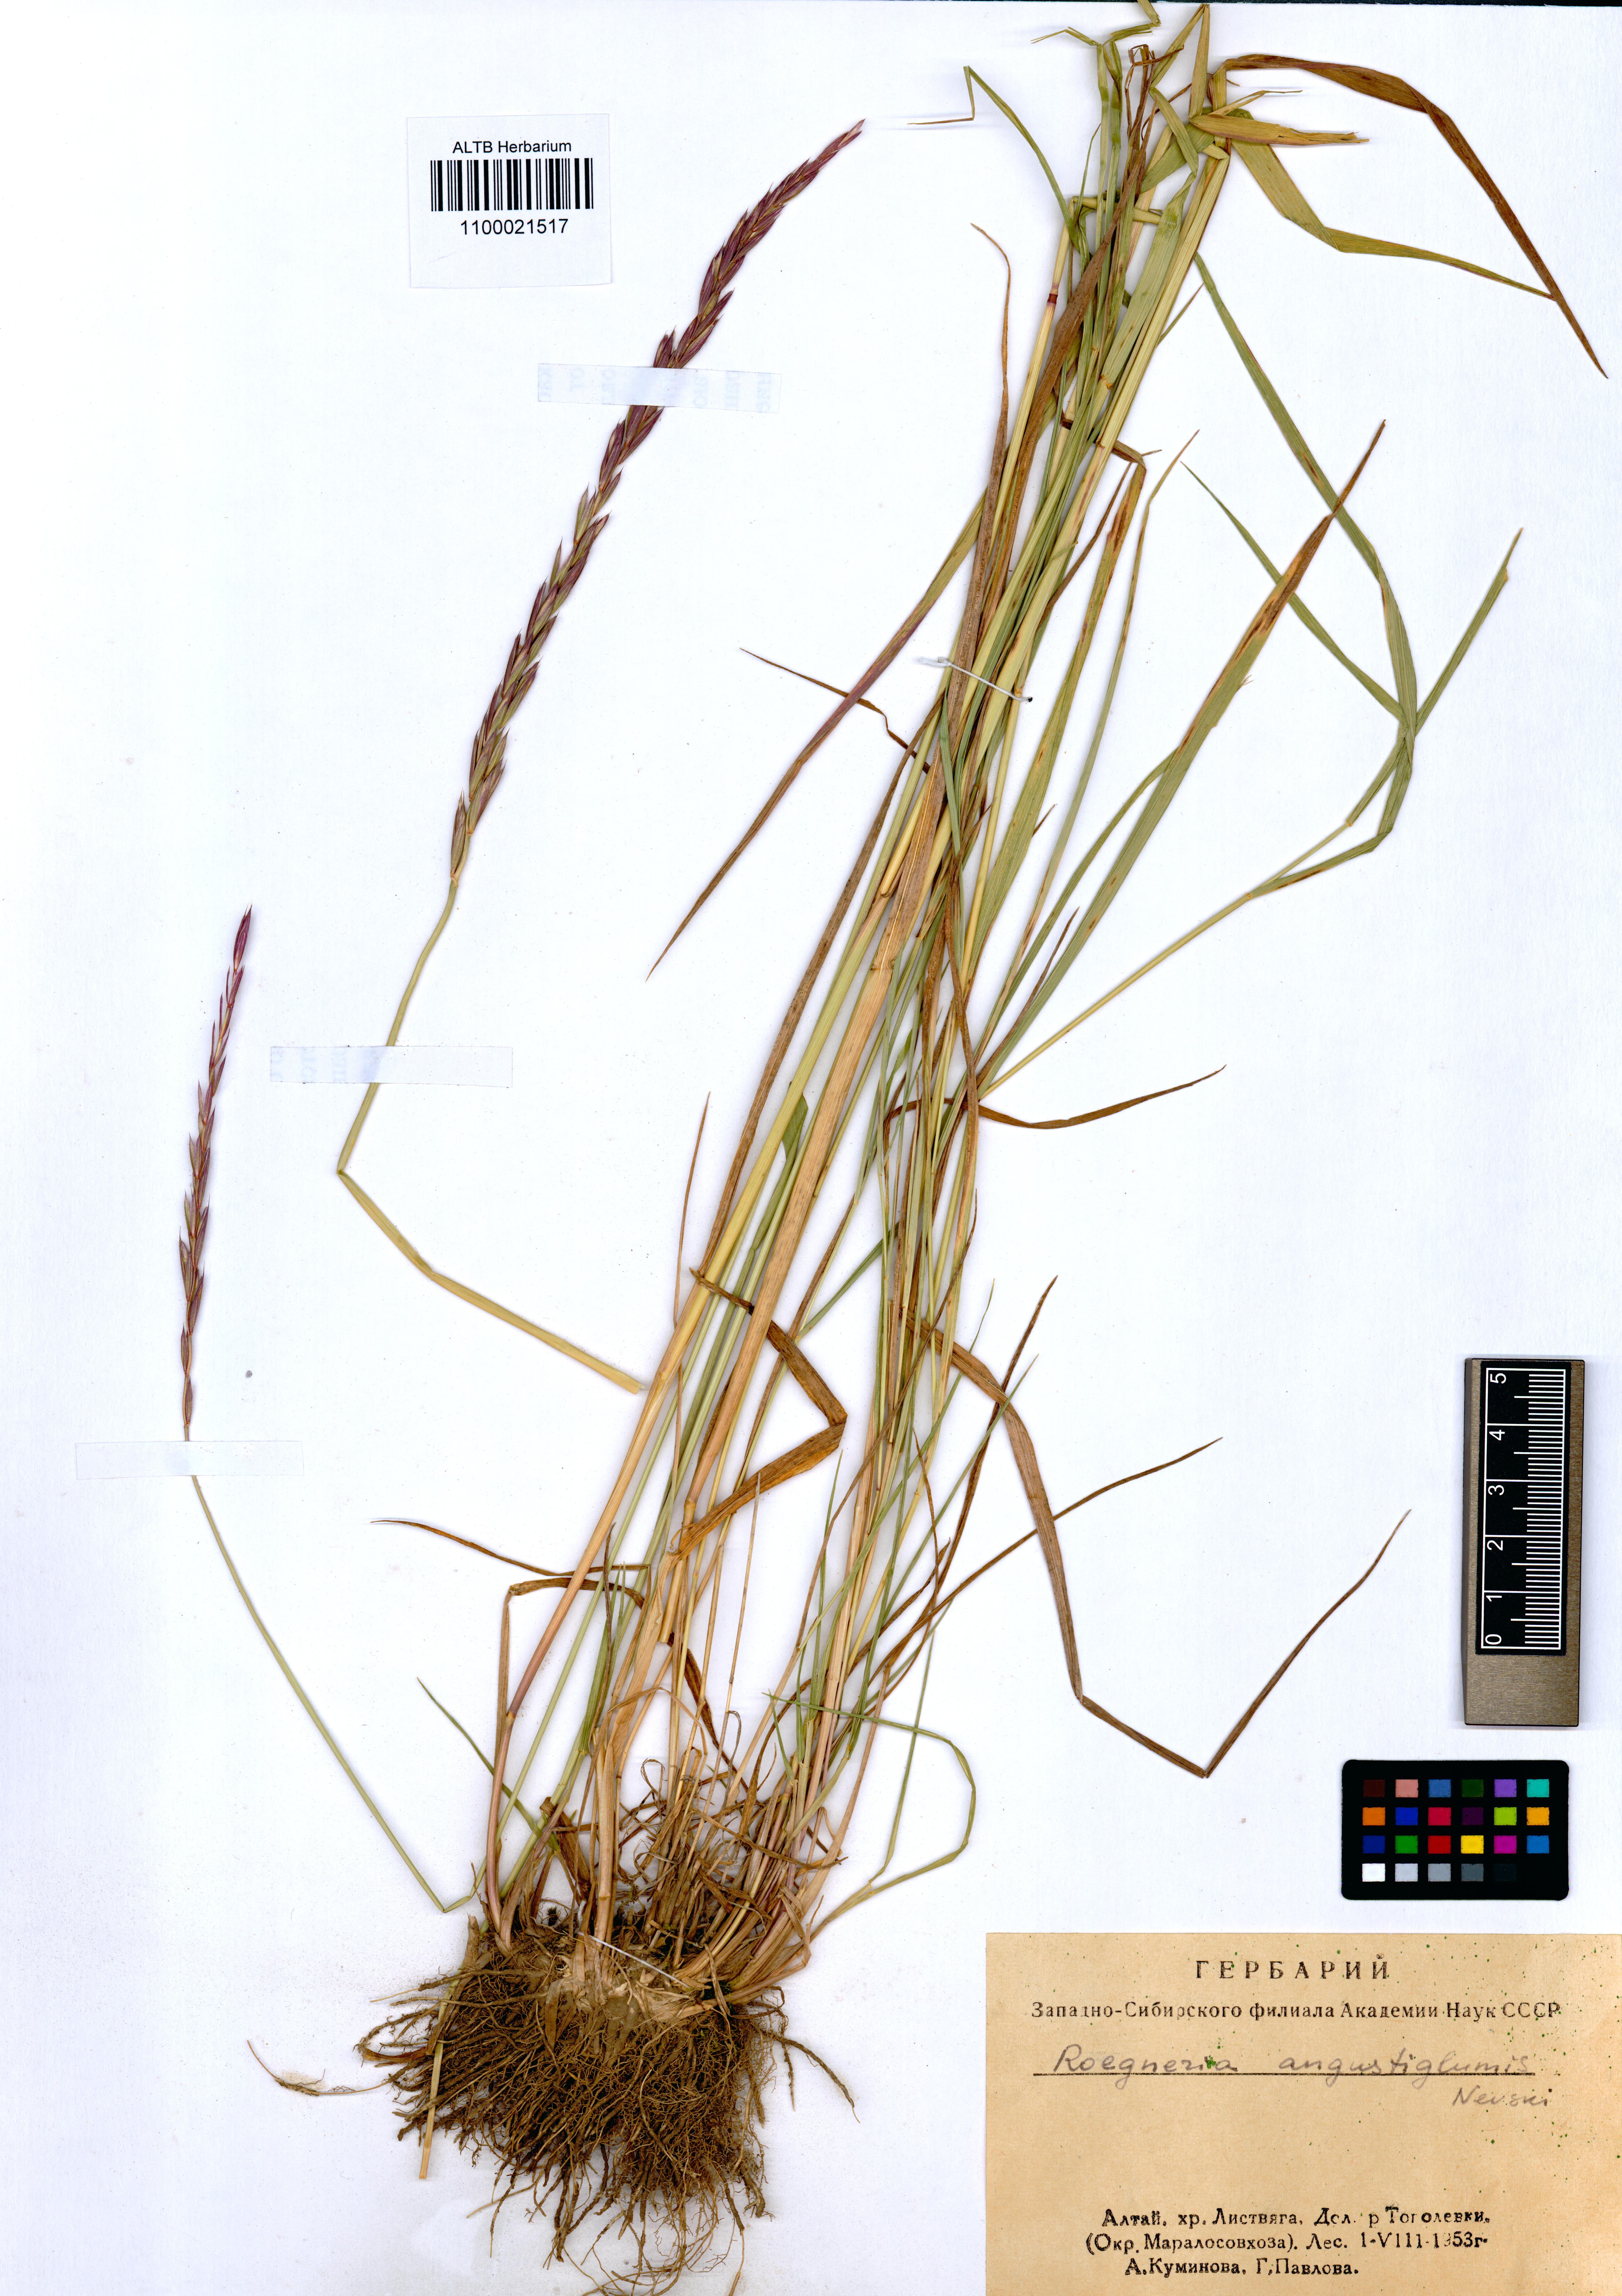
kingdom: Plantae
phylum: Tracheophyta
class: Liliopsida
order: Poales
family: Poaceae
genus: Elymus
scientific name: Elymus mutabilis
